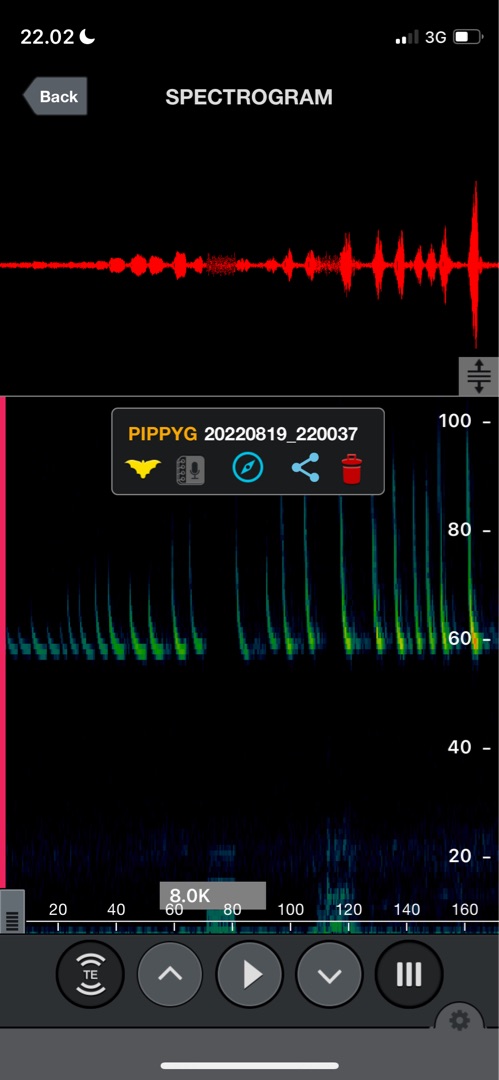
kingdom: Animalia
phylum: Chordata
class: Mammalia
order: Chiroptera
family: Vespertilionidae
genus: Pipistrellus
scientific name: Pipistrellus pygmaeus
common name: Dværgflagermus
